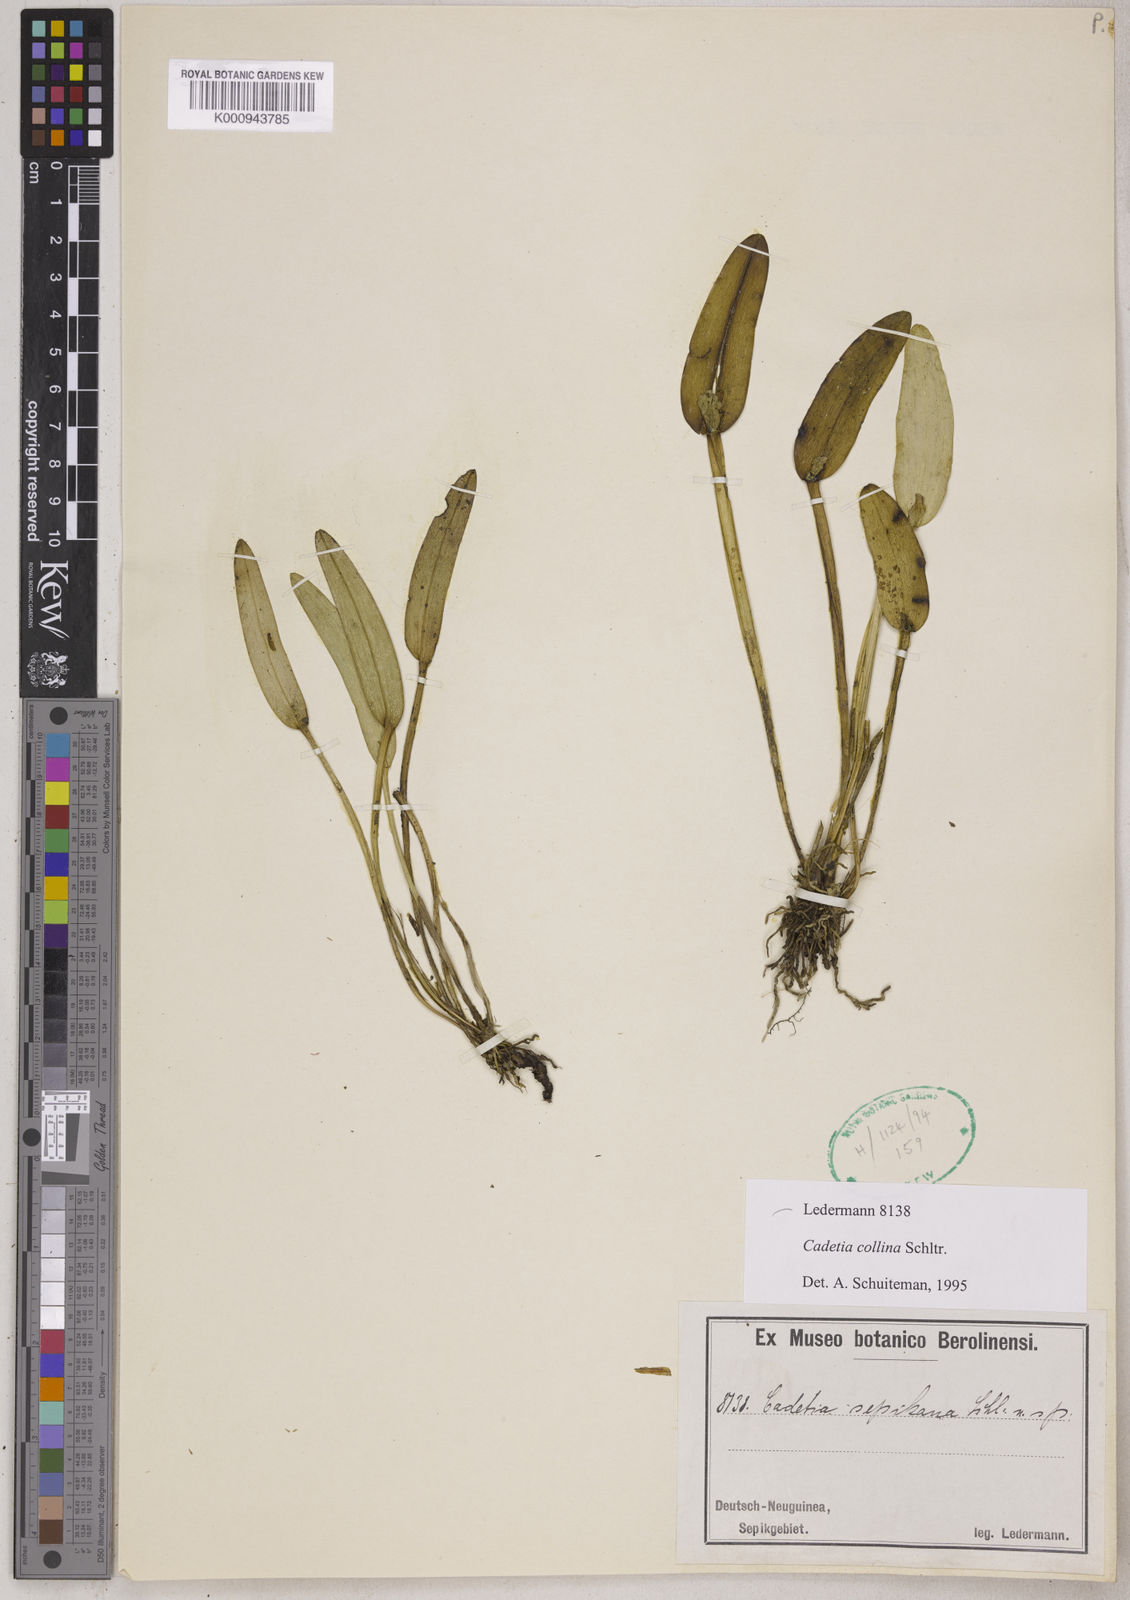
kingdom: Plantae
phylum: Tracheophyta
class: Liliopsida
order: Asparagales
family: Orchidaceae
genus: Dendrobium
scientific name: Dendrobium versteegii
